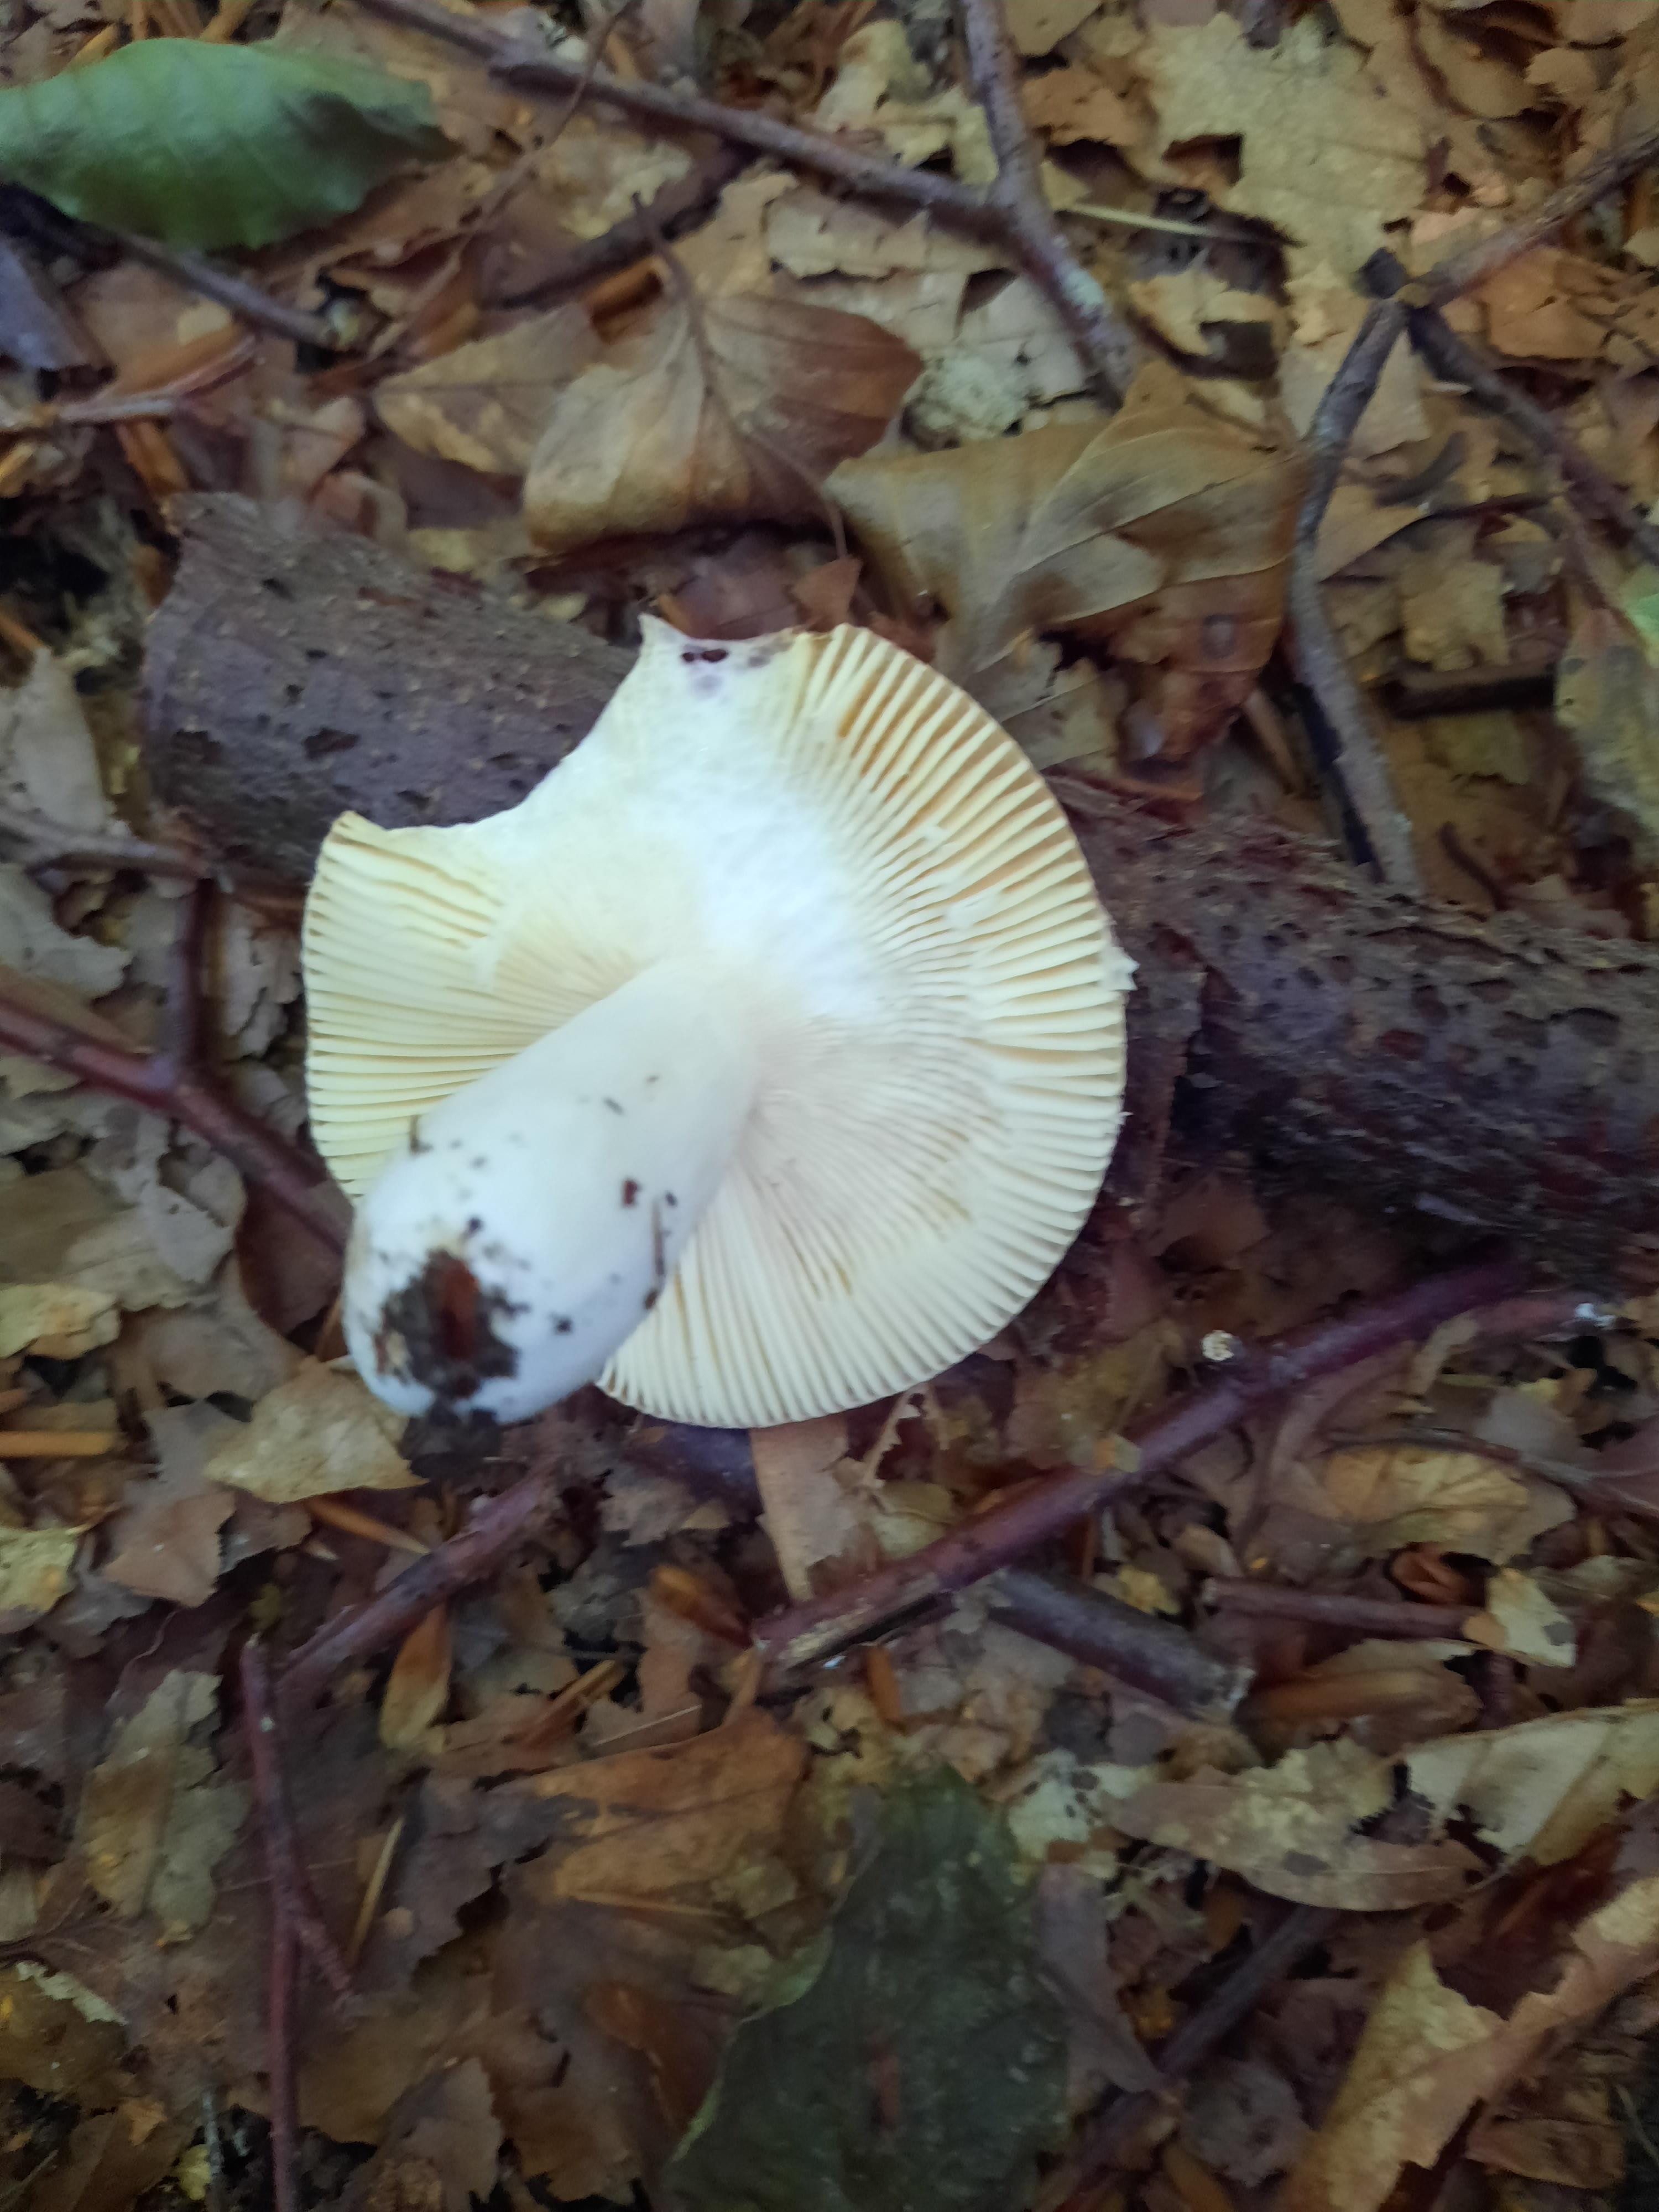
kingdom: Fungi
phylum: Basidiomycota
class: Agaricomycetes
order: Russulales
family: Russulaceae
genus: Russula
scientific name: Russula
